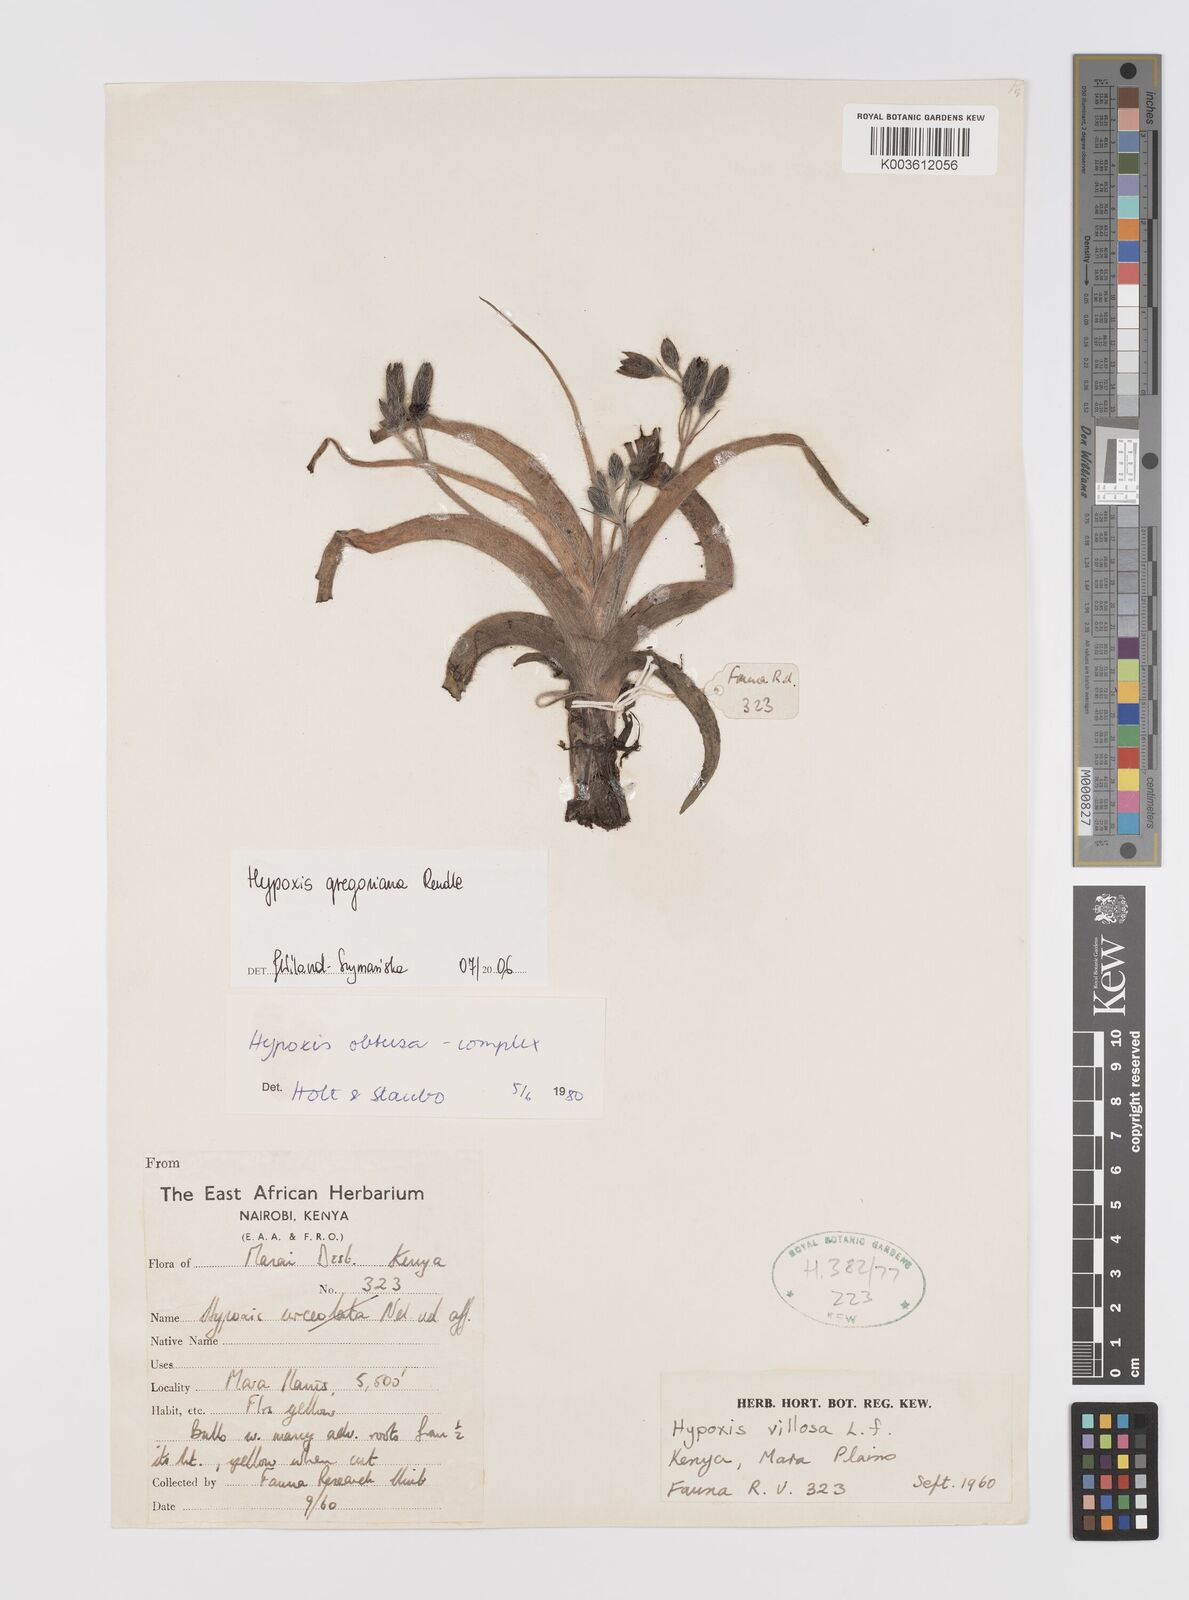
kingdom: Plantae
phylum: Tracheophyta
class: Liliopsida
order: Asparagales
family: Hypoxidaceae
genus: Hypoxis
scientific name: Hypoxis gregoriana
